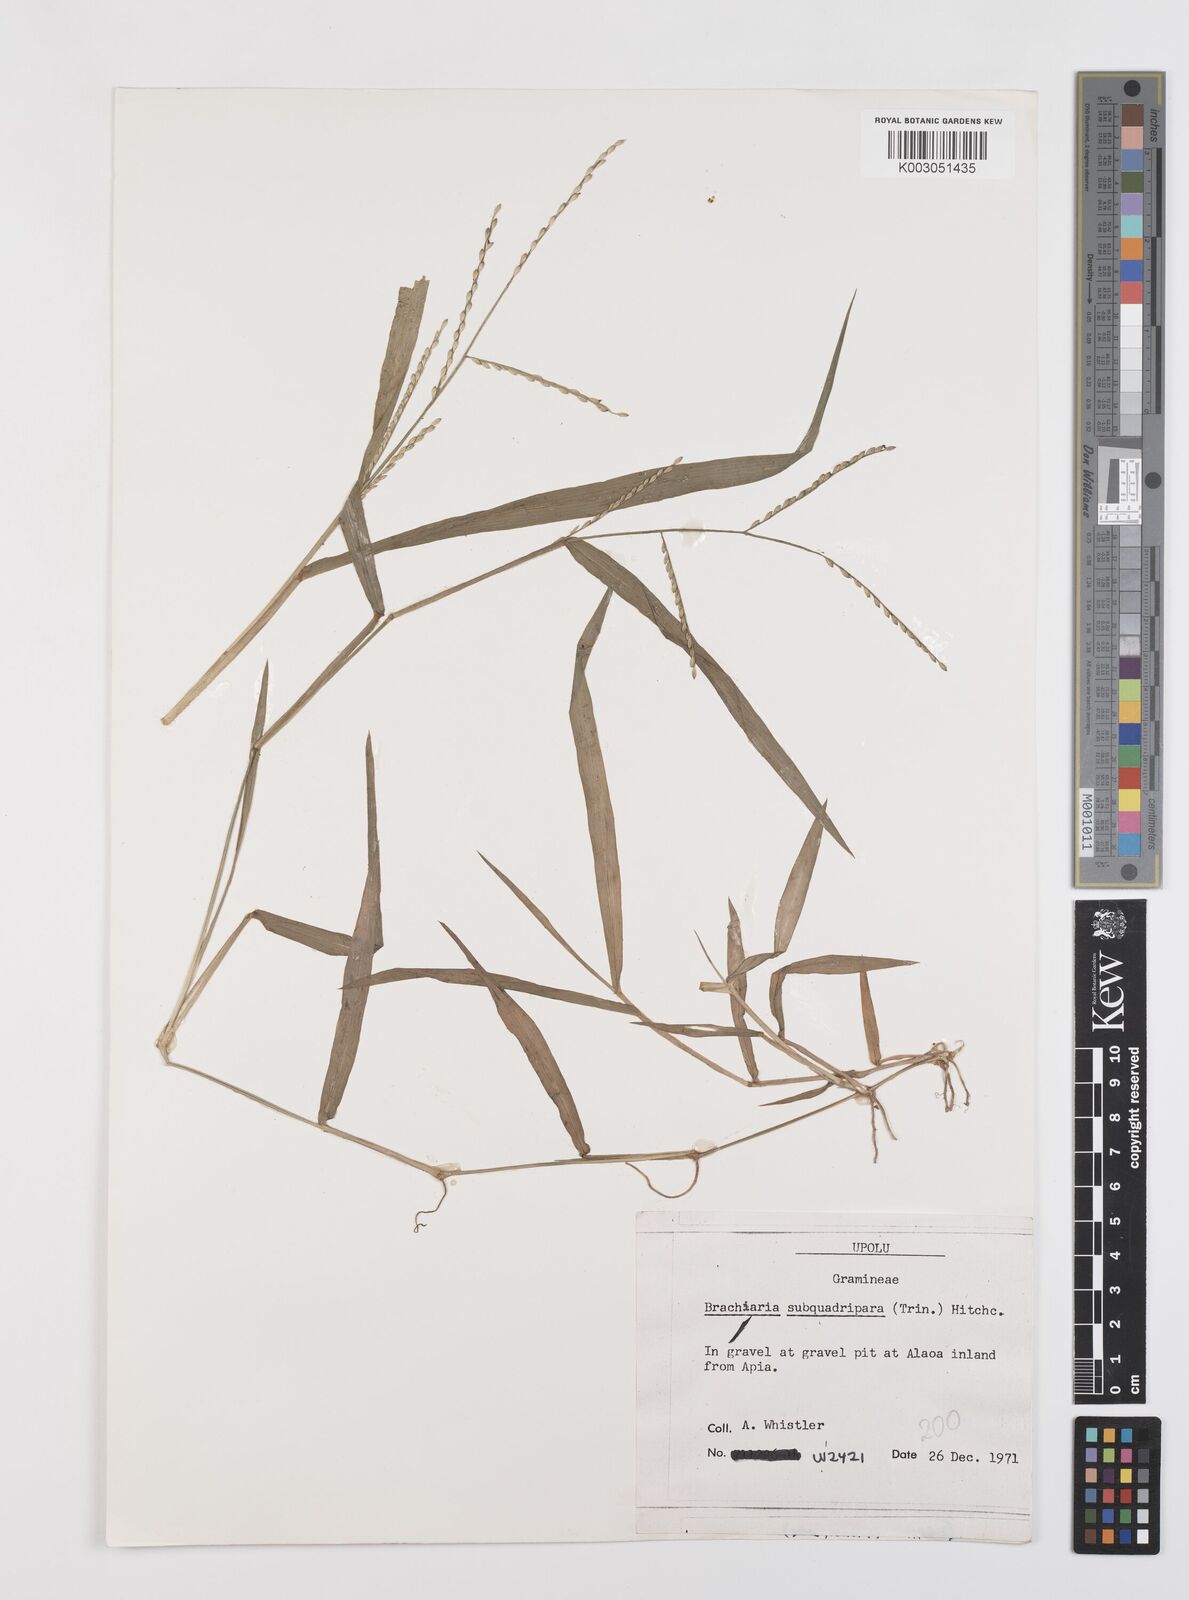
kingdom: Plantae
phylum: Tracheophyta
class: Liliopsida
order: Poales
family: Poaceae
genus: Urochloa
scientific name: Urochloa subquadripara
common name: Armgrass millet
